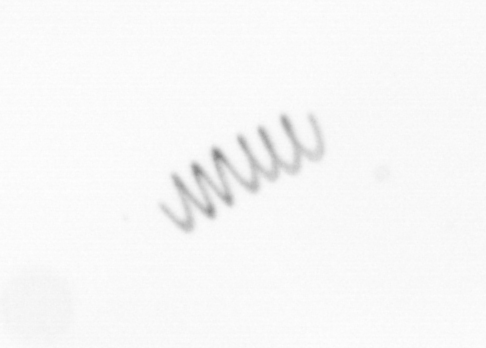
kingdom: Chromista
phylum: Ochrophyta
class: Bacillariophyceae
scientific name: Bacillariophyceae
